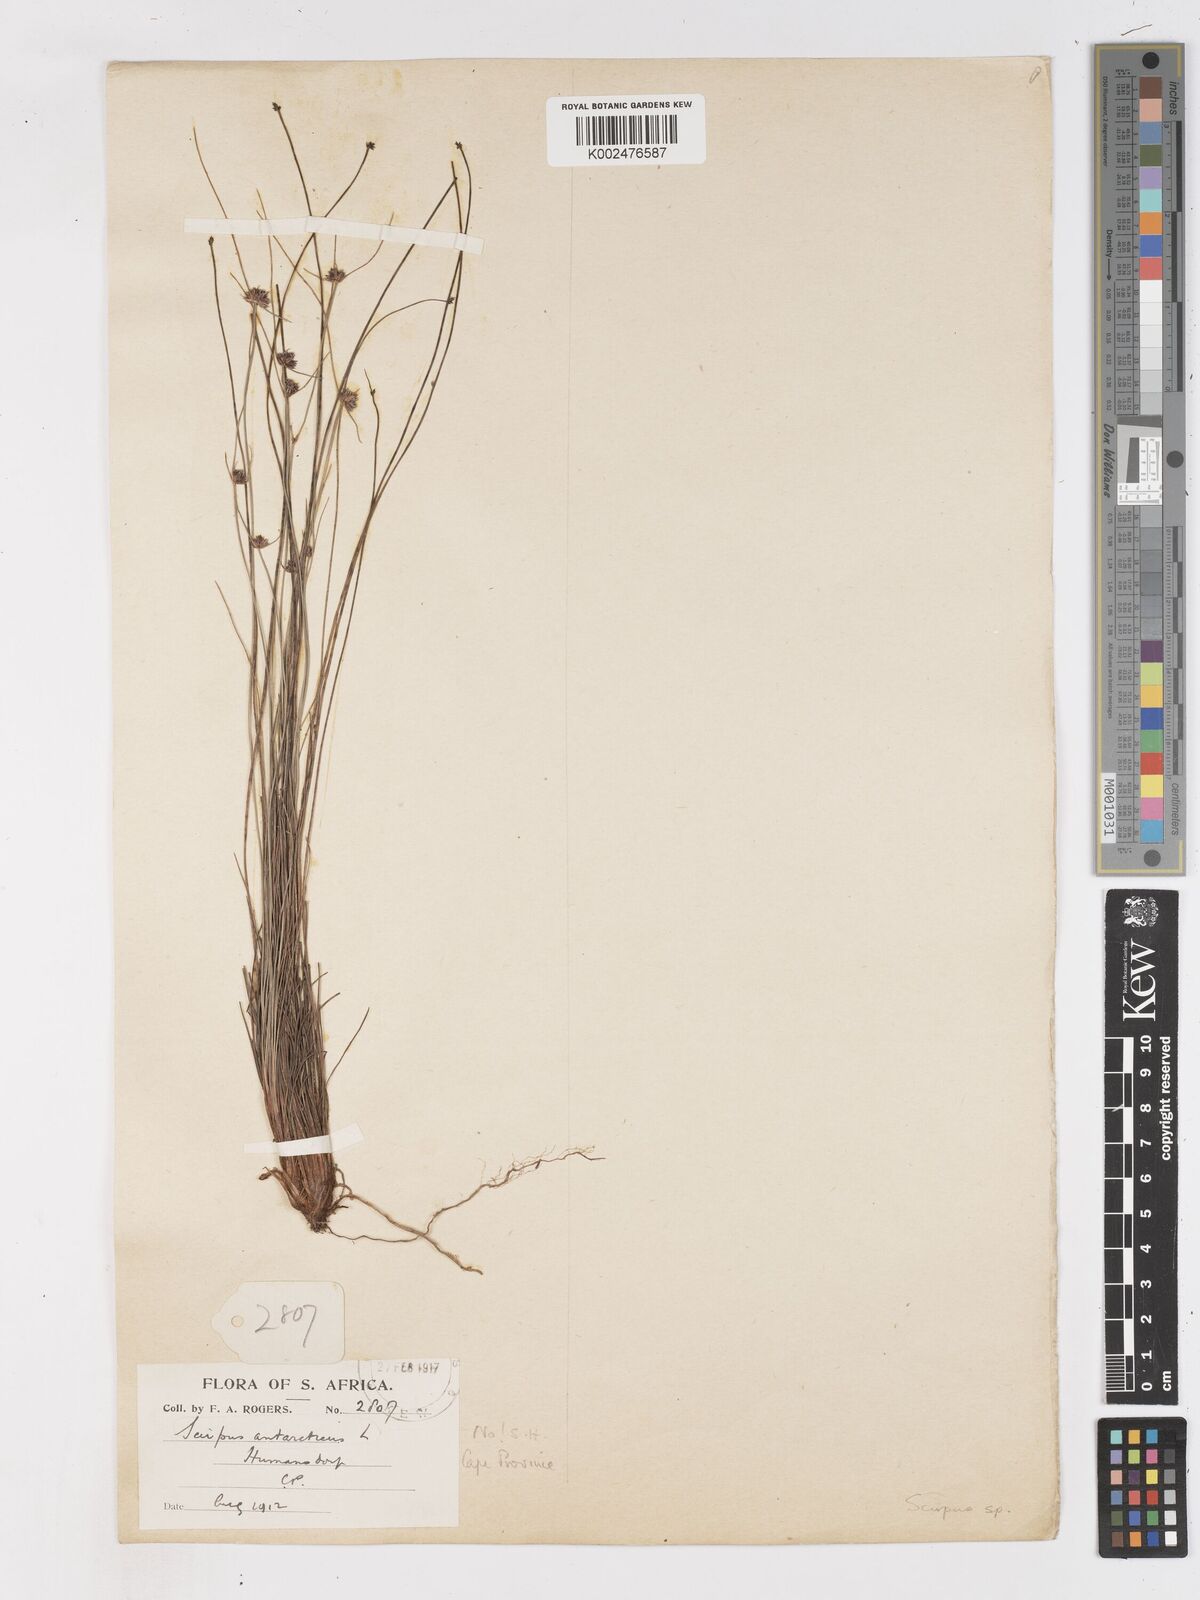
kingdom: Plantae
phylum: Tracheophyta
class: Liliopsida
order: Poales
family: Cyperaceae
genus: Ficinia
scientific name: Ficinia
